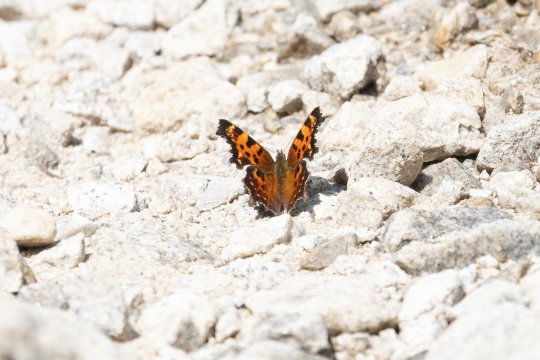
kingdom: Animalia
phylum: Arthropoda
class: Insecta
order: Lepidoptera
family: Nymphalidae
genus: Polygonia
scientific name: Polygonia faunus
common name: Green Comma
